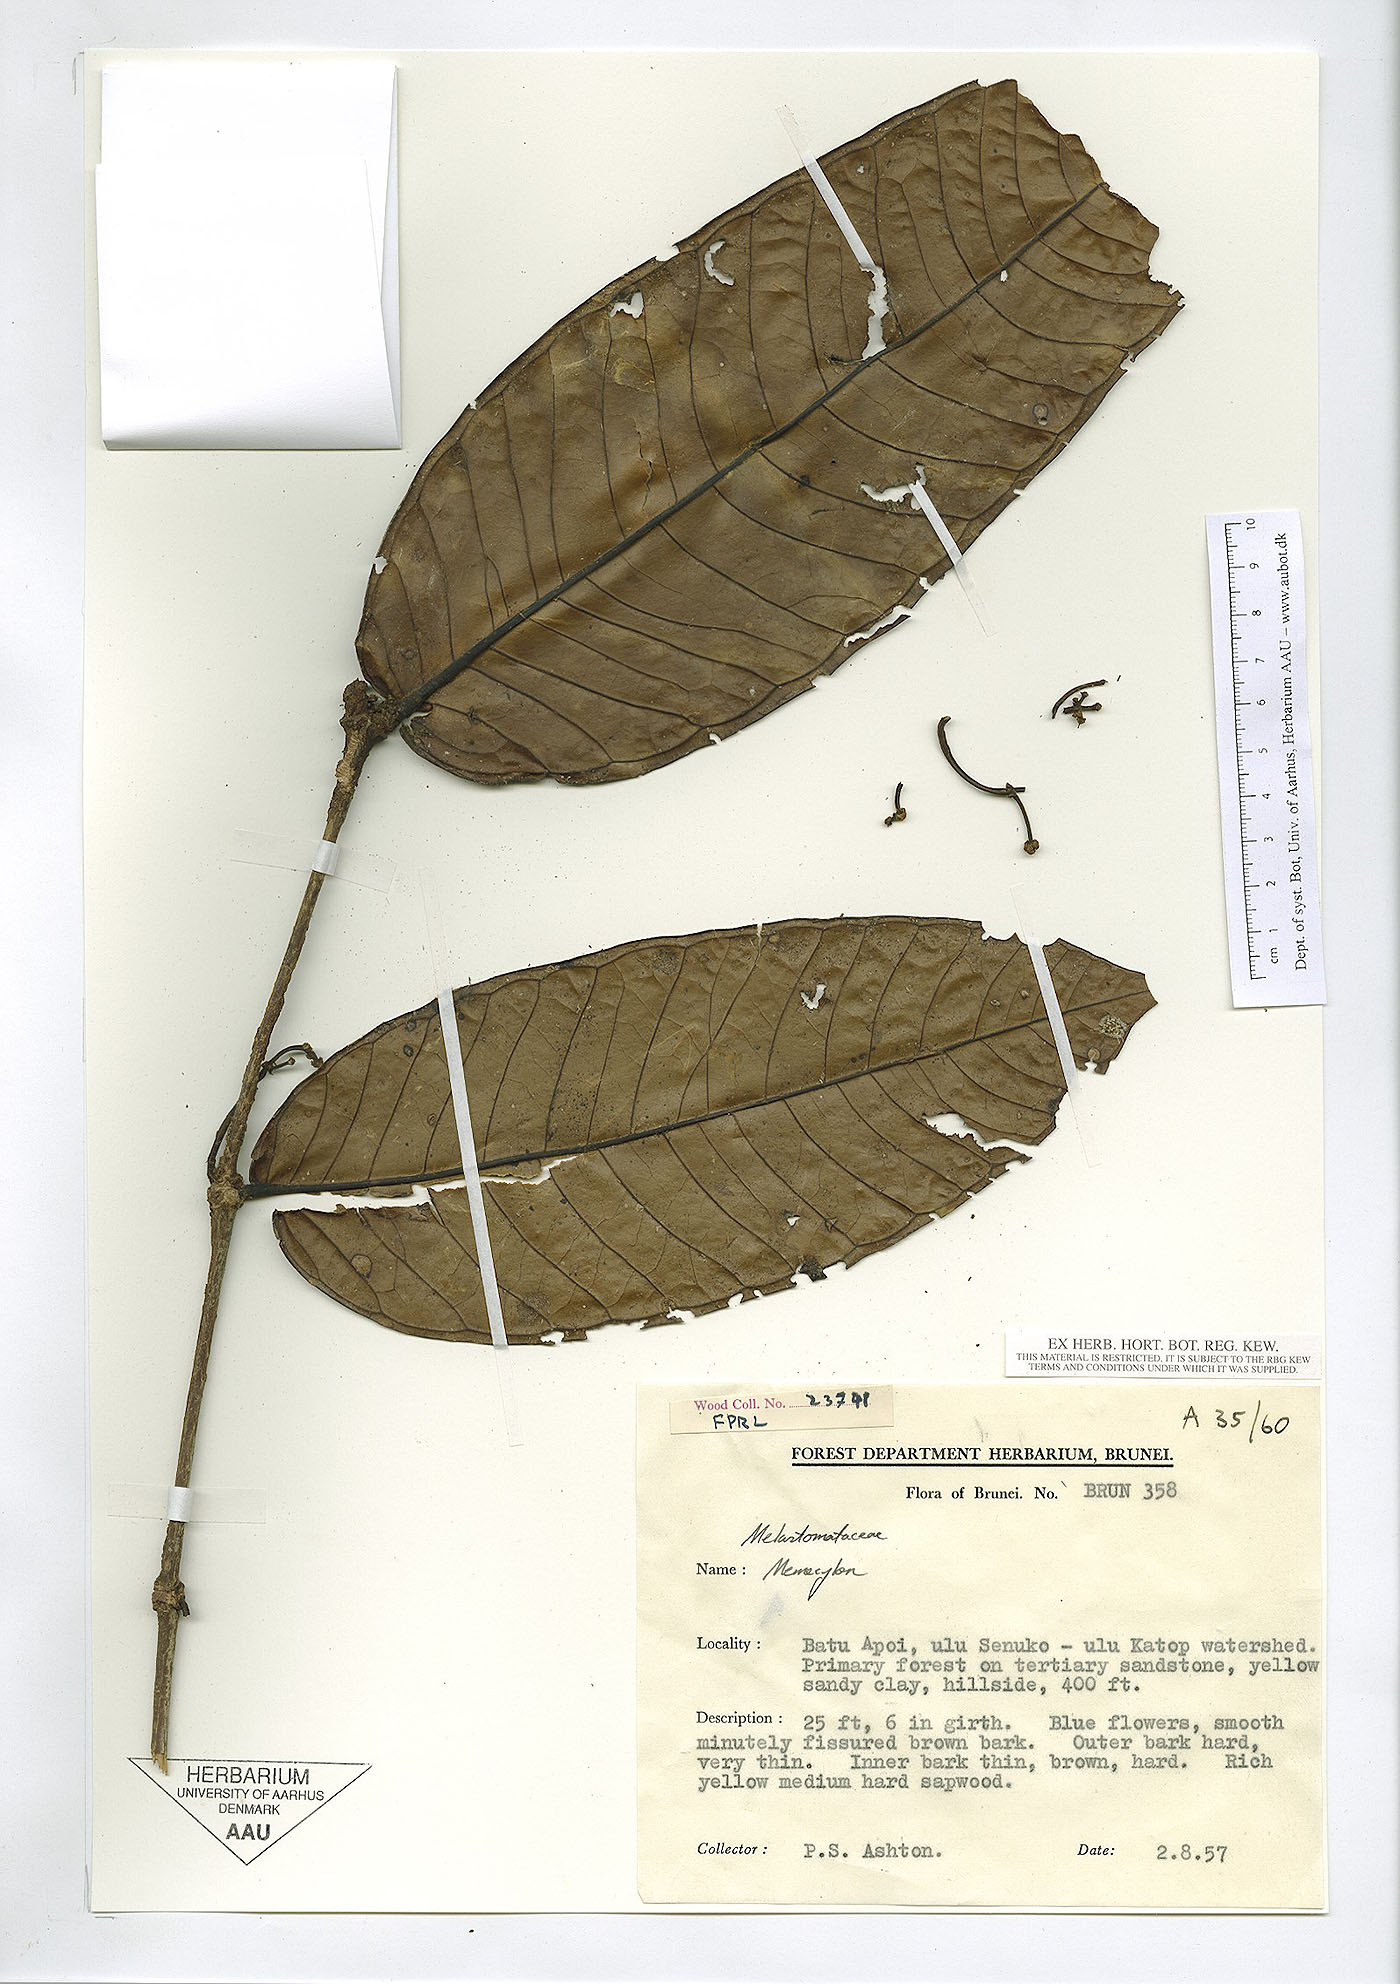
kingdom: Plantae
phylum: Tracheophyta
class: Magnoliopsida
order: Myrtales
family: Melastomataceae
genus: Memecylon
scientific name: Memecylon
